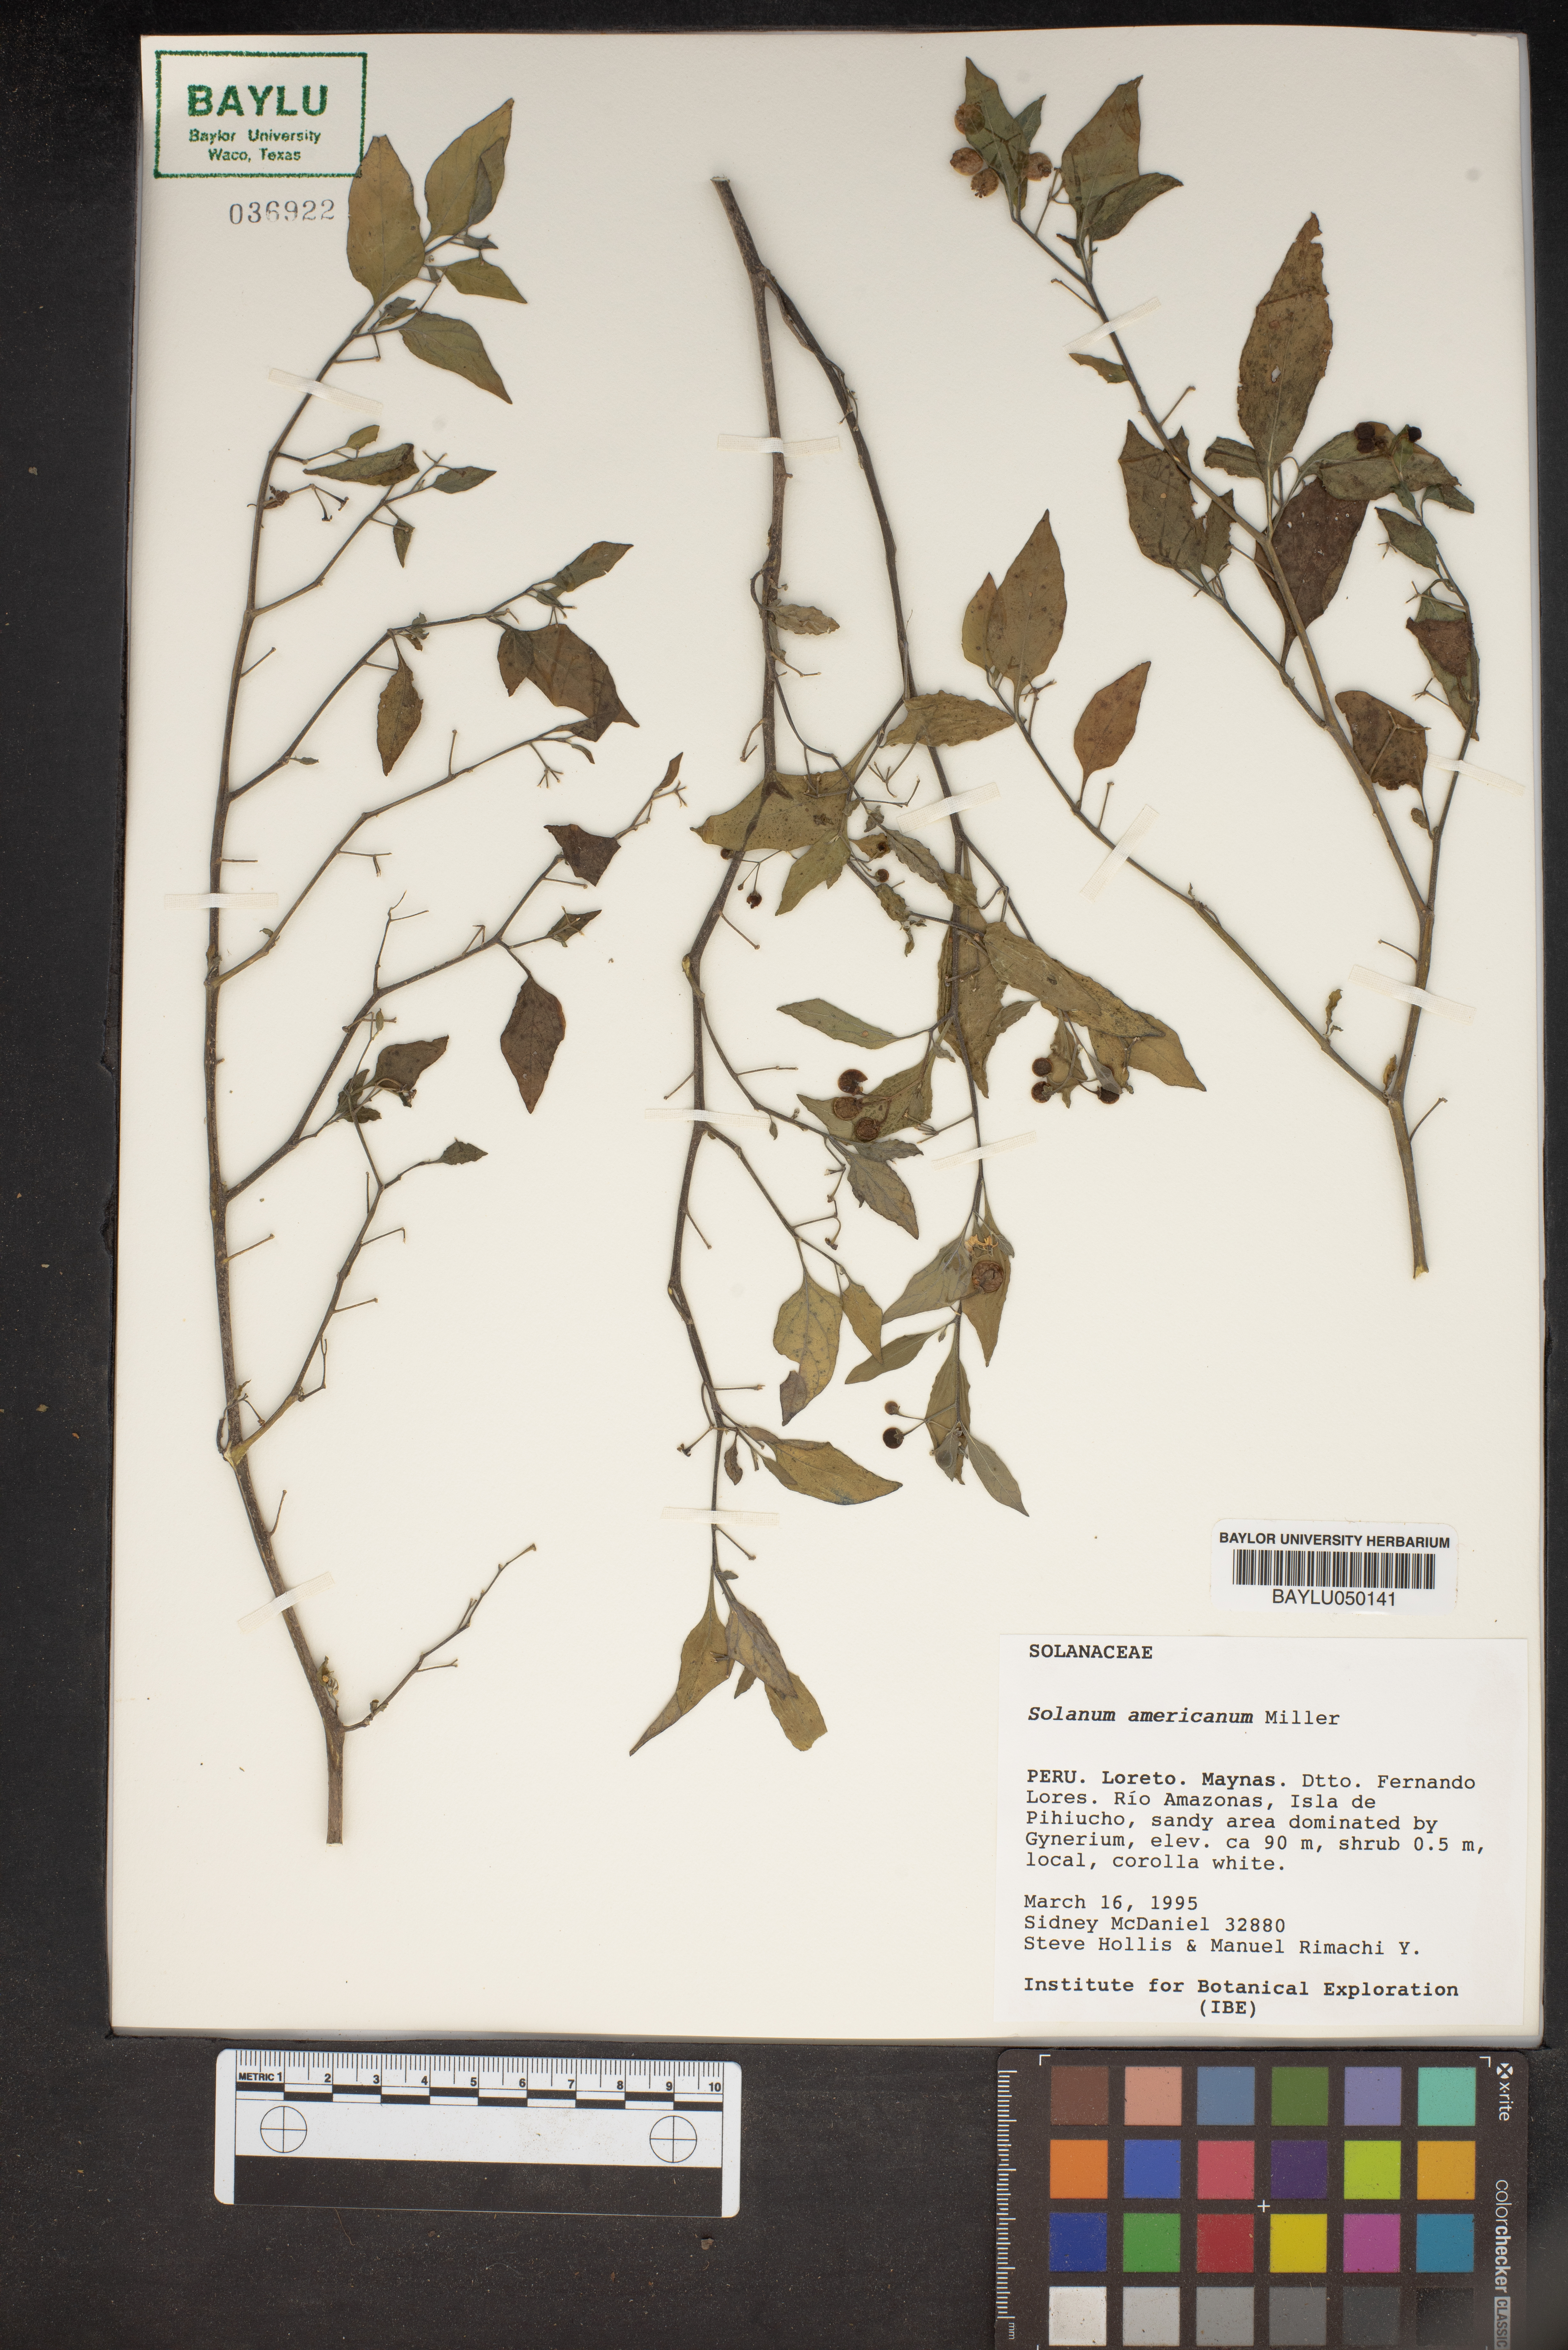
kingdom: Plantae
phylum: Tracheophyta
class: Magnoliopsida
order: Solanales
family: Solanaceae
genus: Solanum
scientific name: Solanum americanum
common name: American black nightshade
